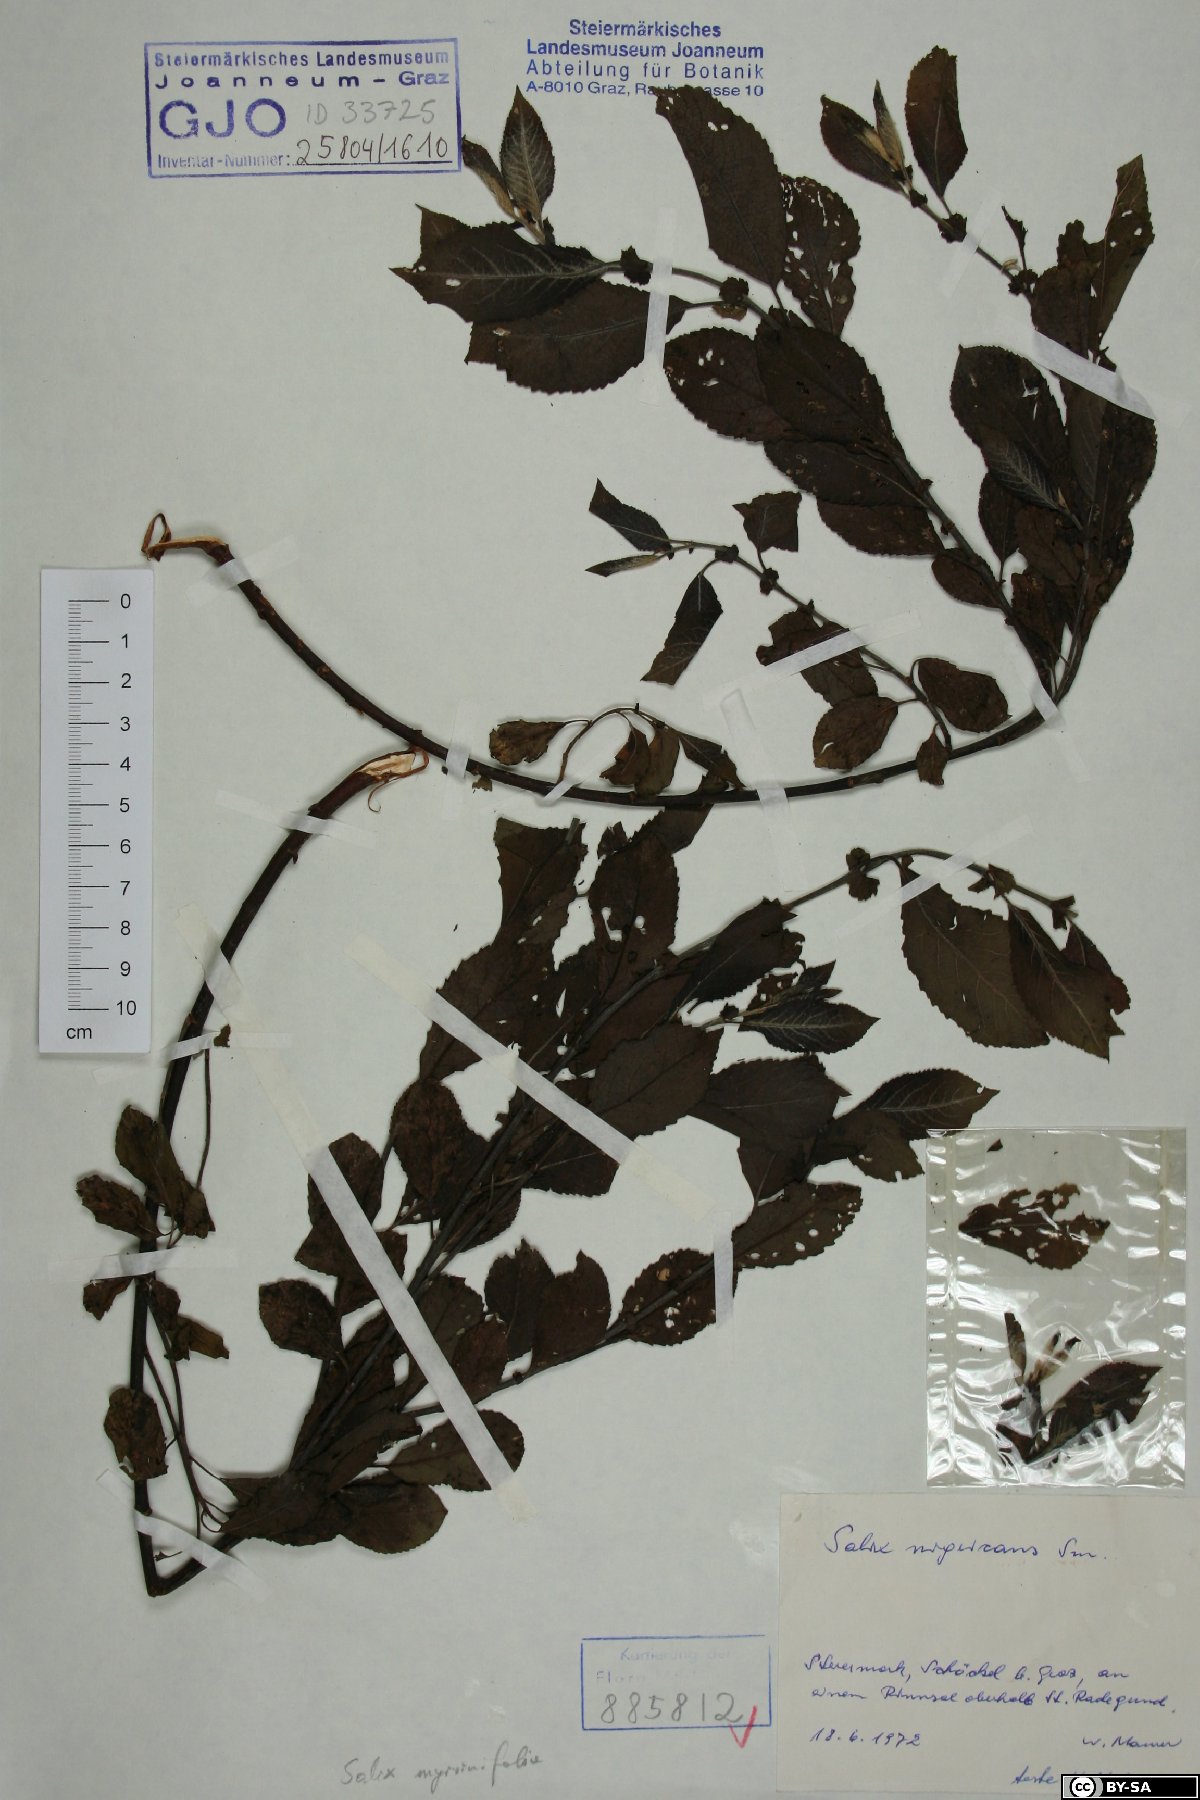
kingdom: Plantae
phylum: Tracheophyta
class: Magnoliopsida
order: Malpighiales
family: Salicaceae
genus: Salix
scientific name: Salix myrsinifolia
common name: Dark-leaved willow
